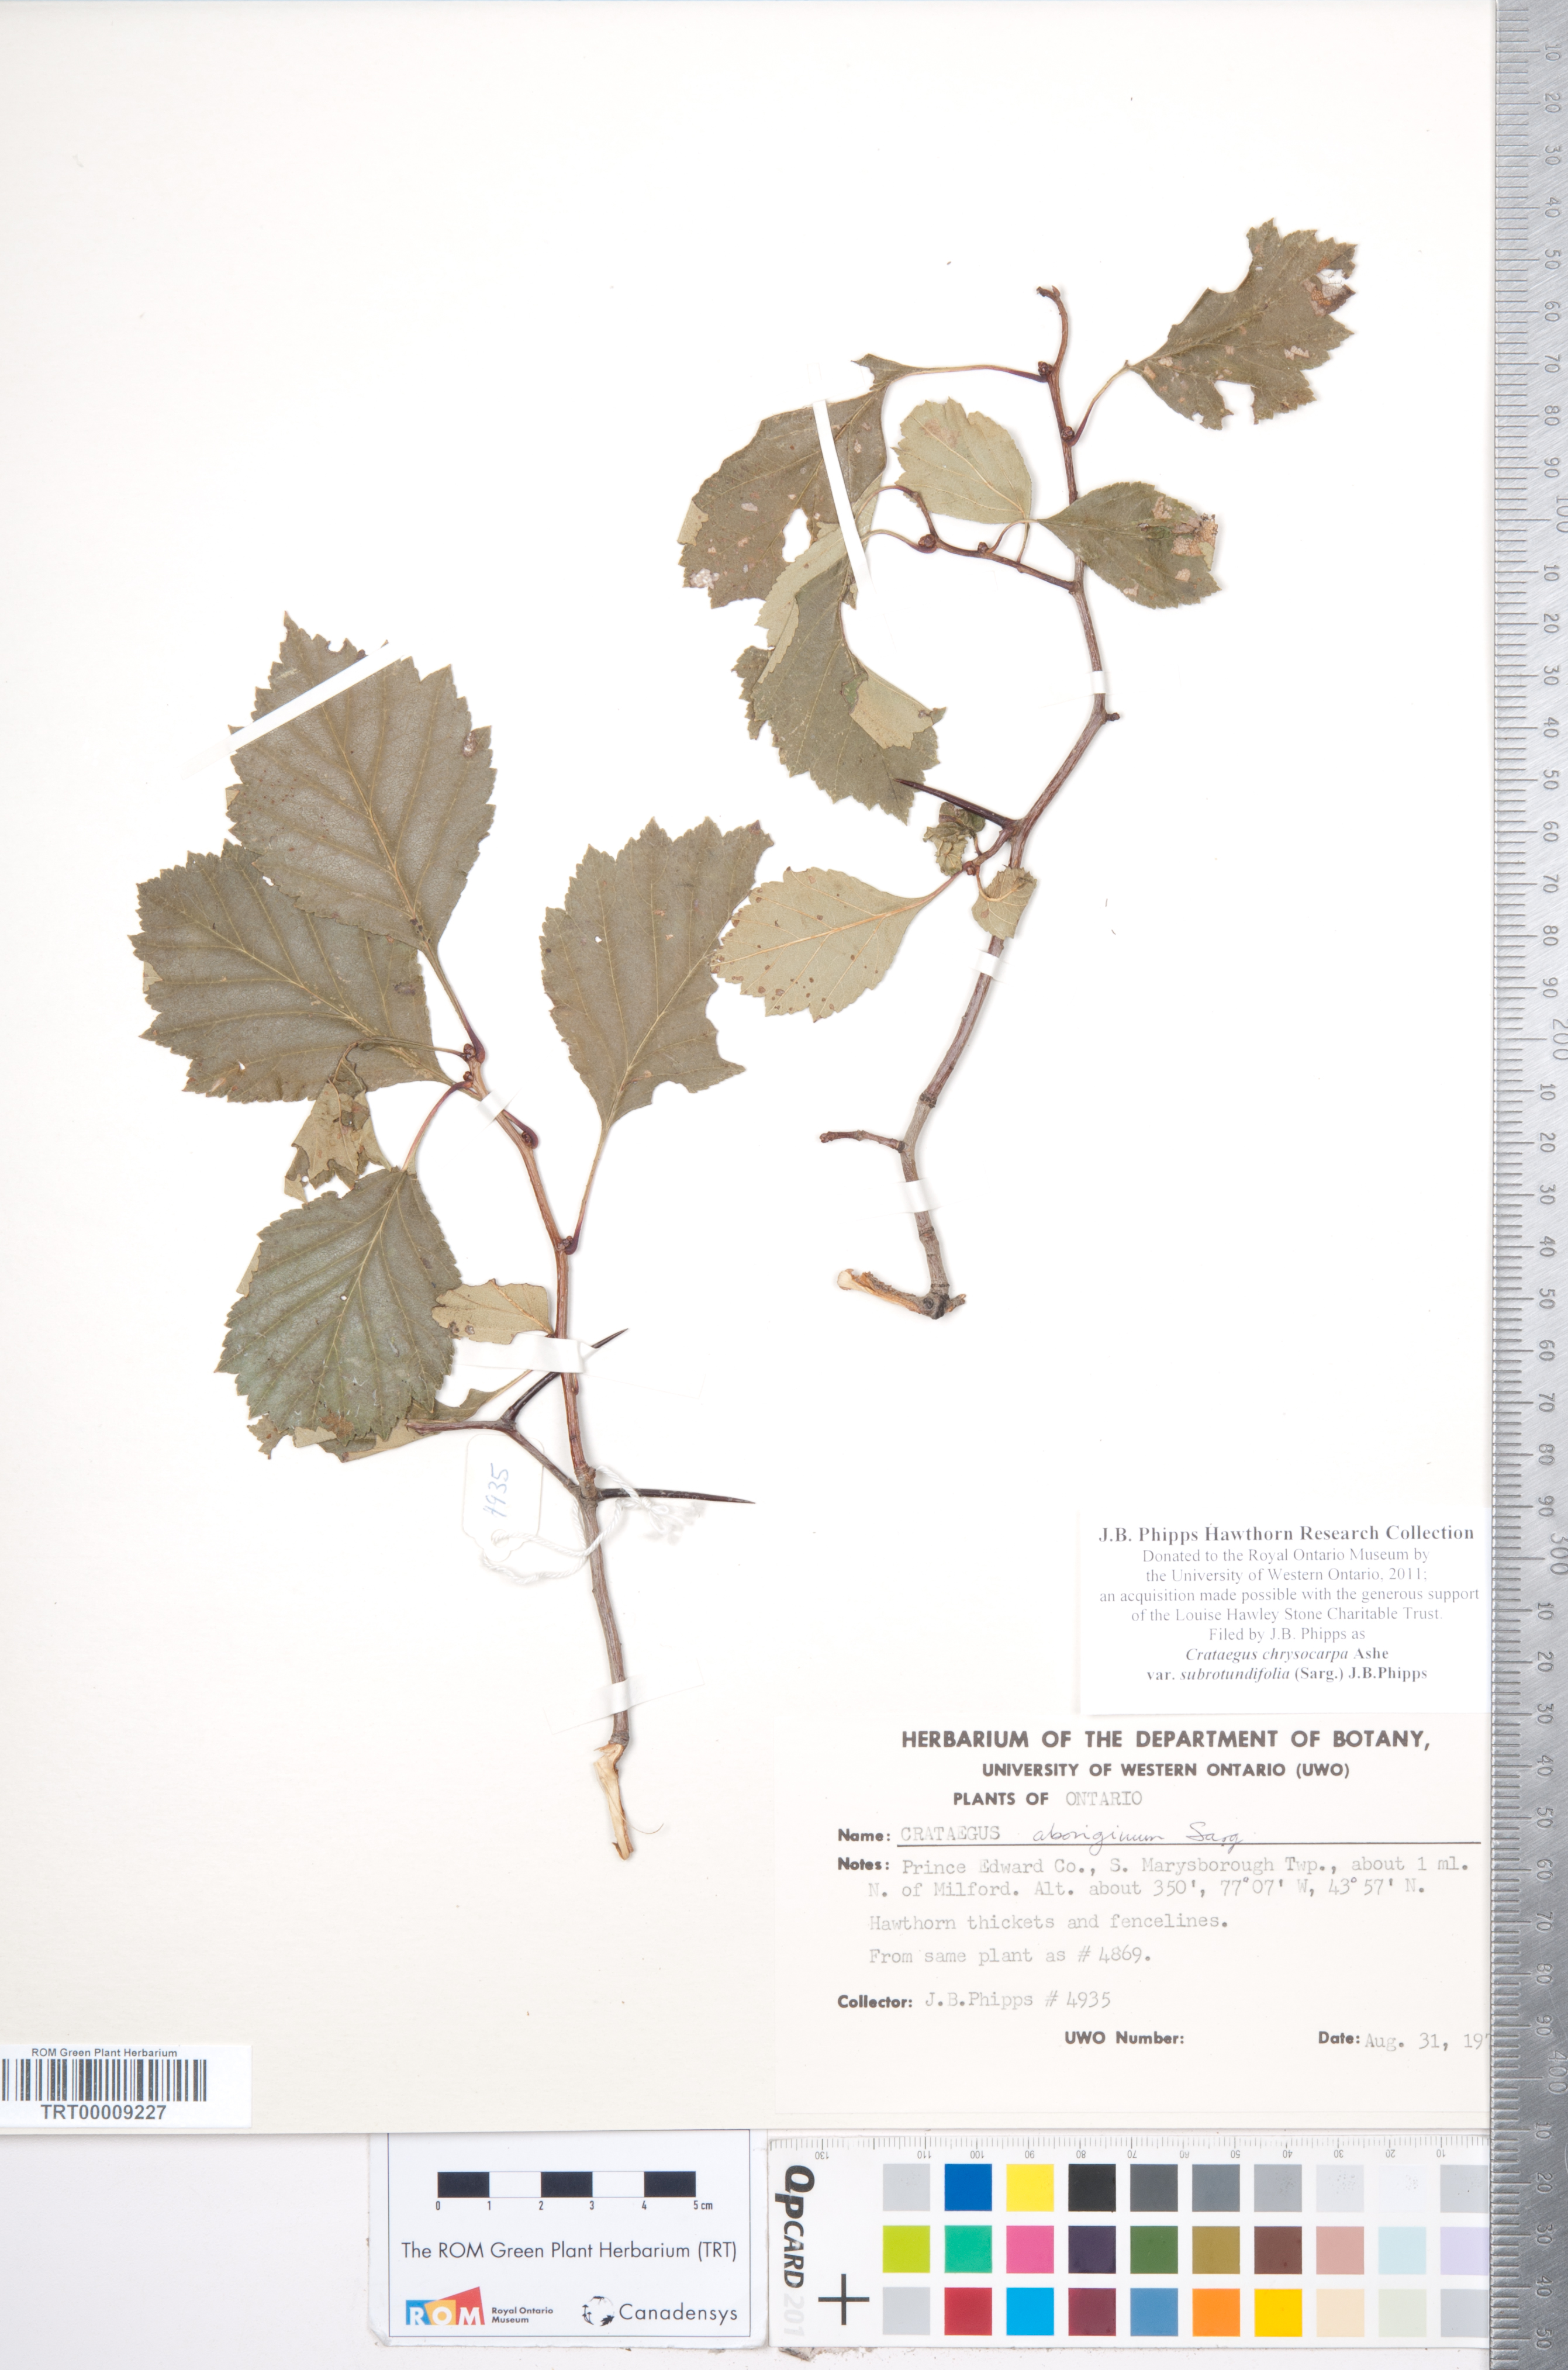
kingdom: Plantae
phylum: Tracheophyta
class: Magnoliopsida
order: Rosales
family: Rosaceae
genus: Crataegus
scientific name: Crataegus chrysocarpa
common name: Fire-berry hawthorn
